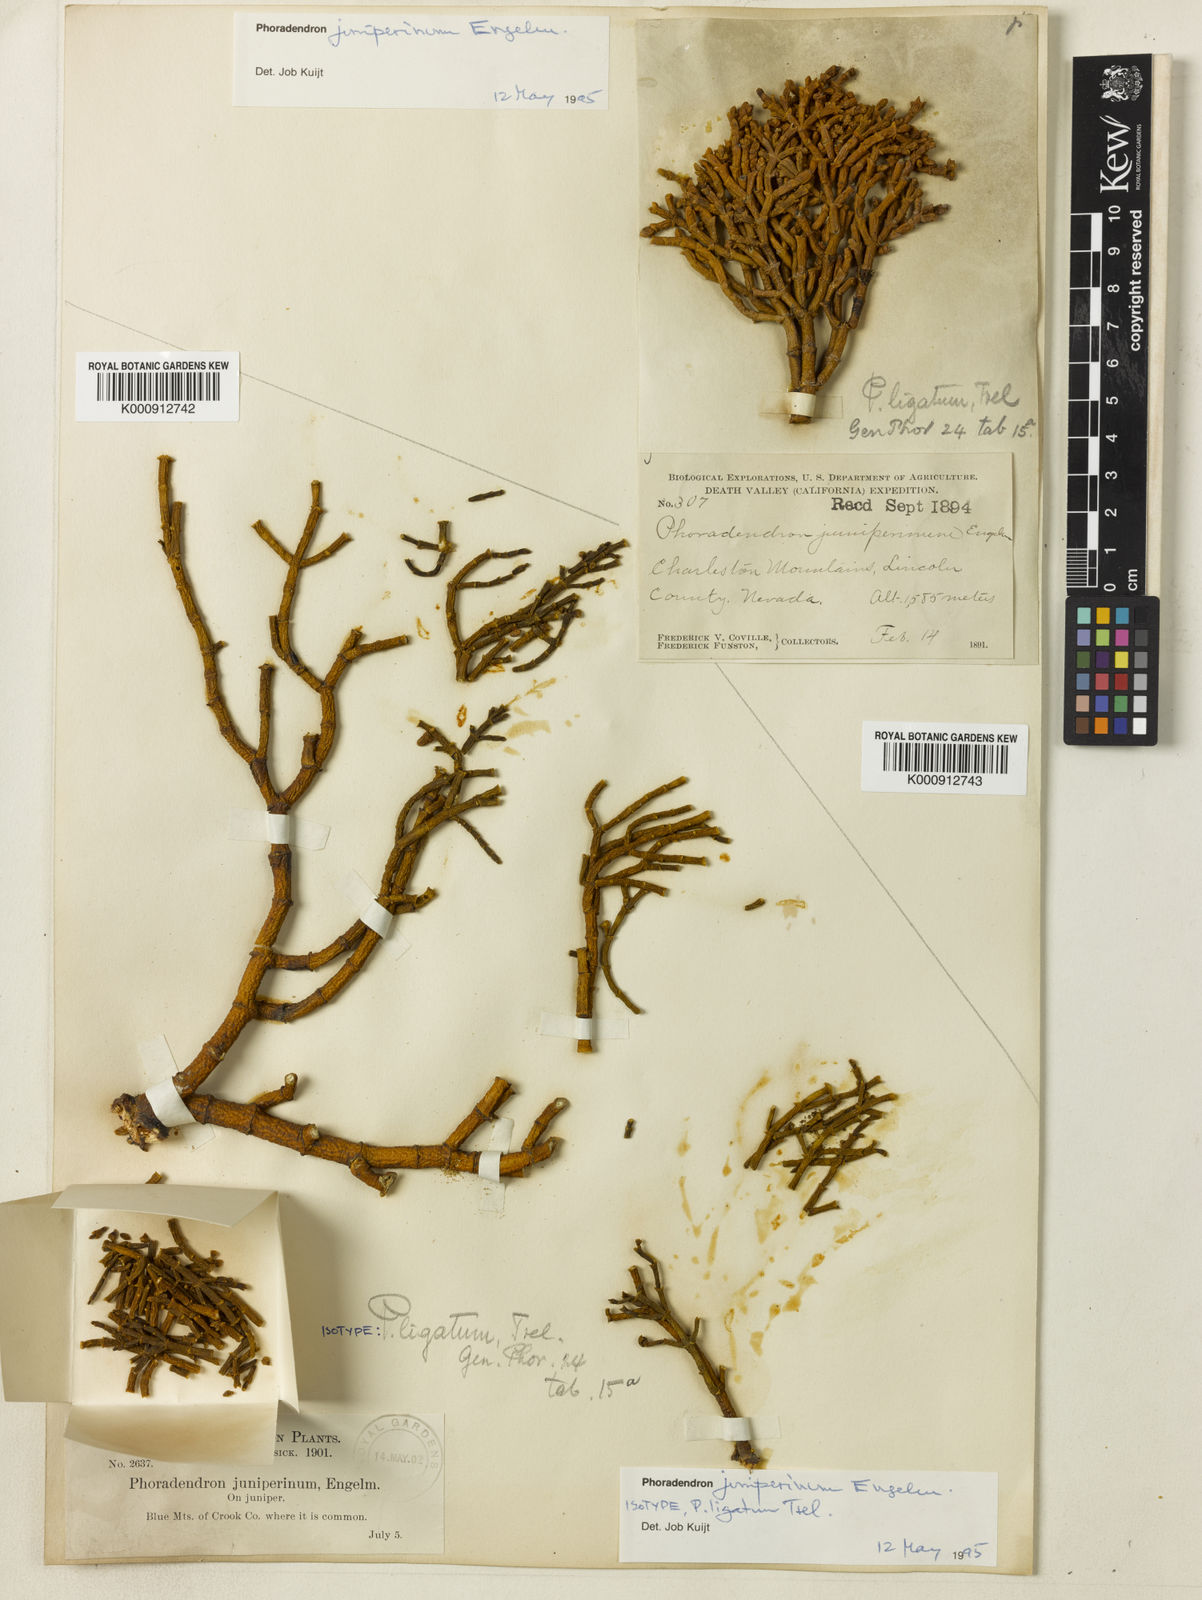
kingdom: Plantae
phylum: Tracheophyta
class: Magnoliopsida
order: Santalales
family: Viscaceae
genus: Phoradendron
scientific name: Phoradendron
